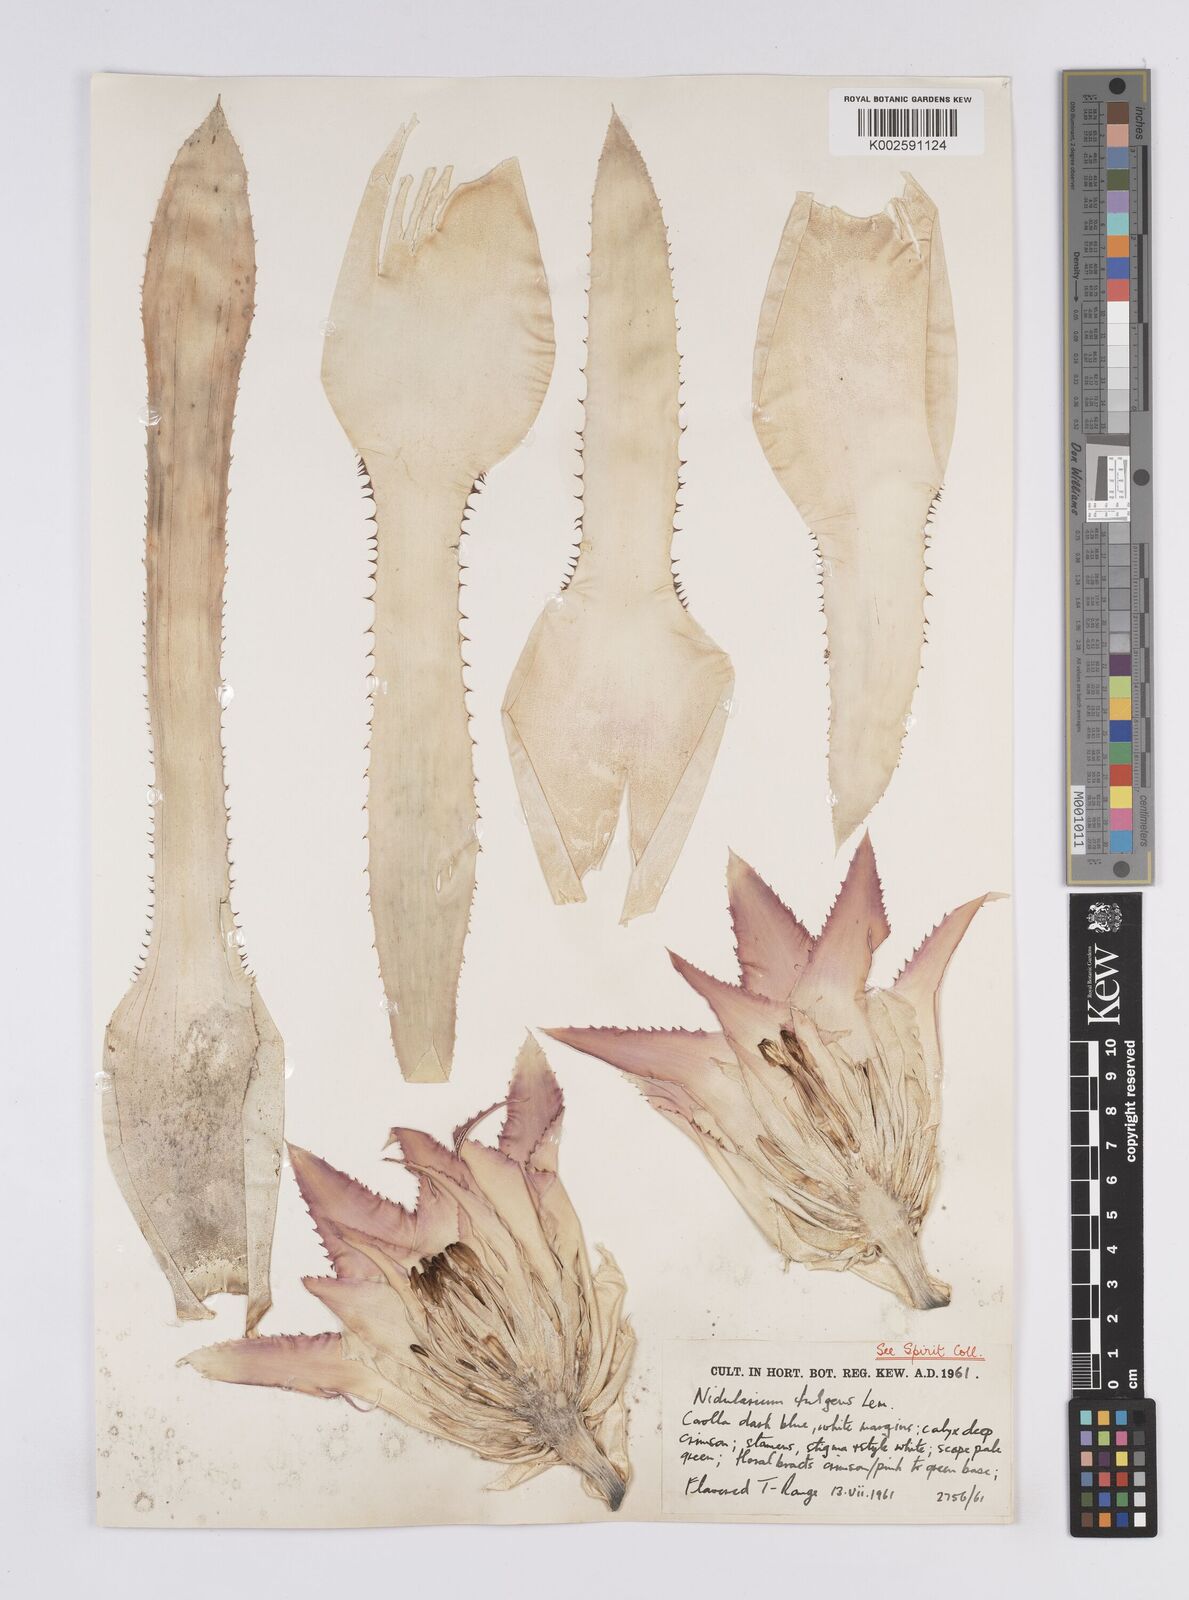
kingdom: Plantae
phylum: Tracheophyta
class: Liliopsida
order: Poales
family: Bromeliaceae
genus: Nidularium
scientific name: Nidularium fulgens
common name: Blushing bromeliad
